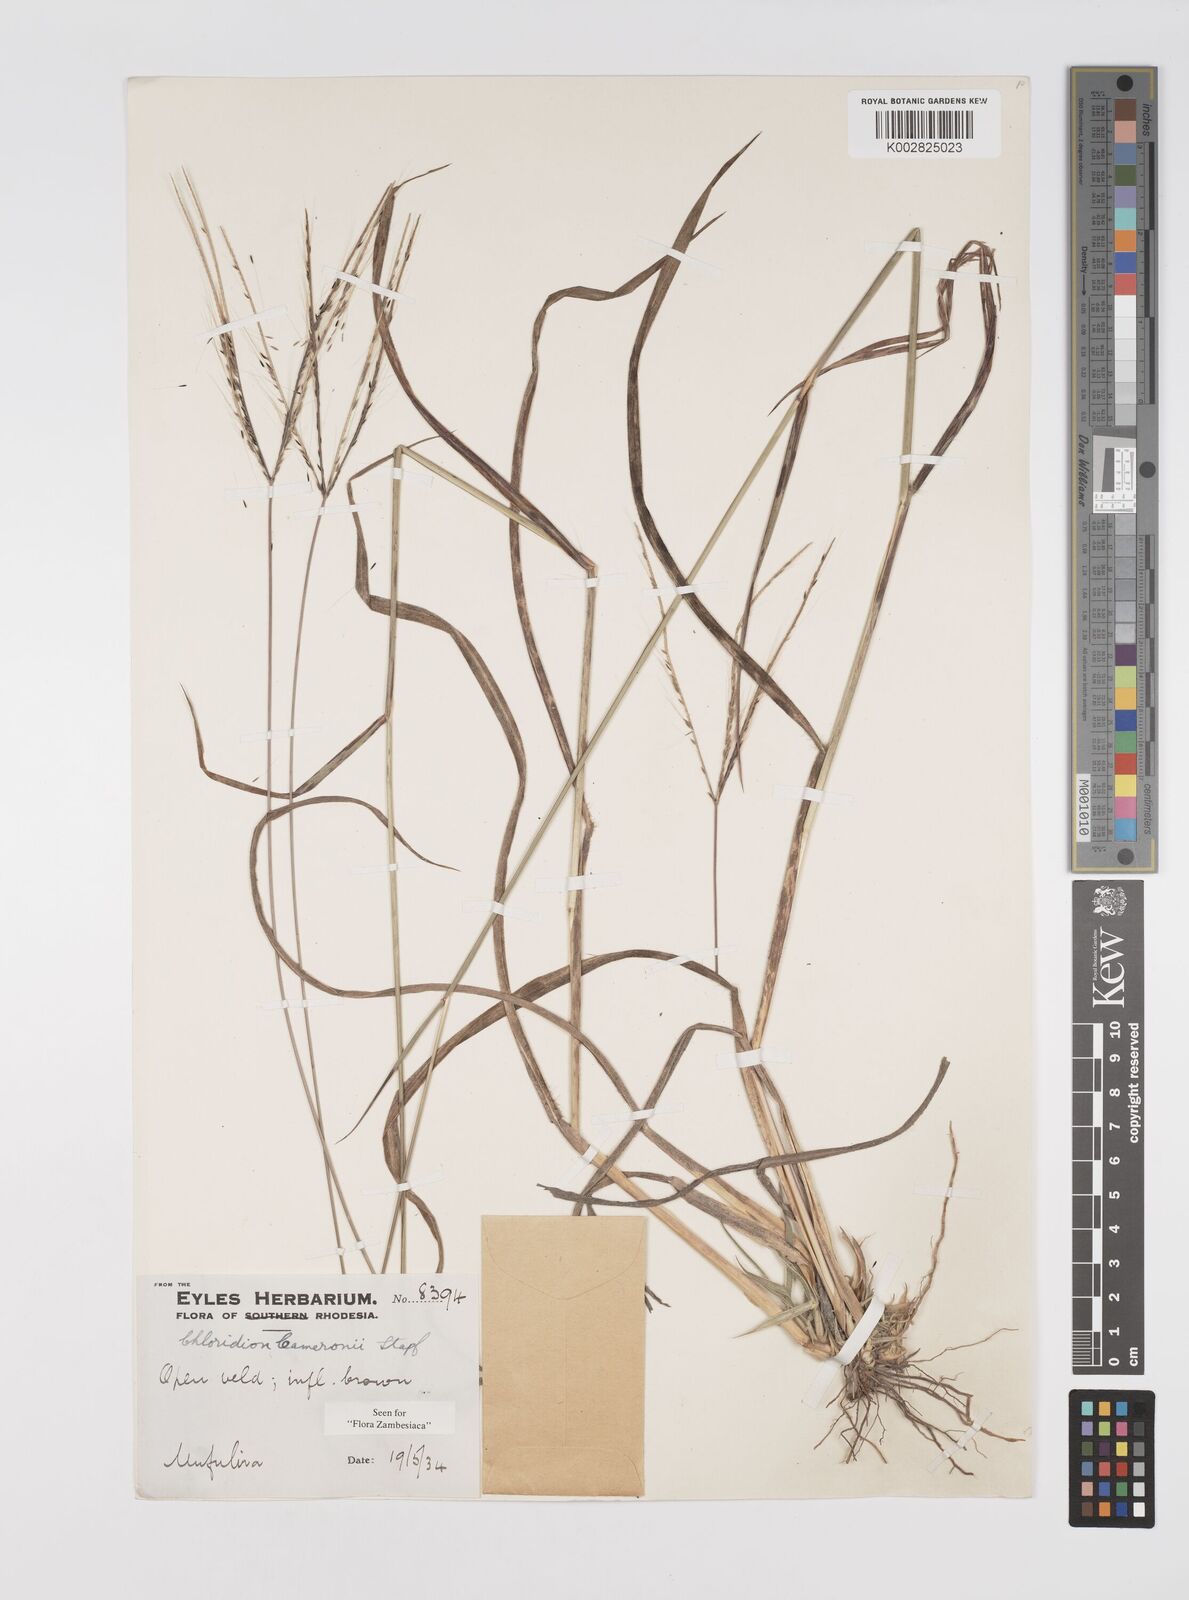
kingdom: Plantae
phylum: Tracheophyta
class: Liliopsida
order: Poales
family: Poaceae
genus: Stereochlaena
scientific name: Stereochlaena cameronii
